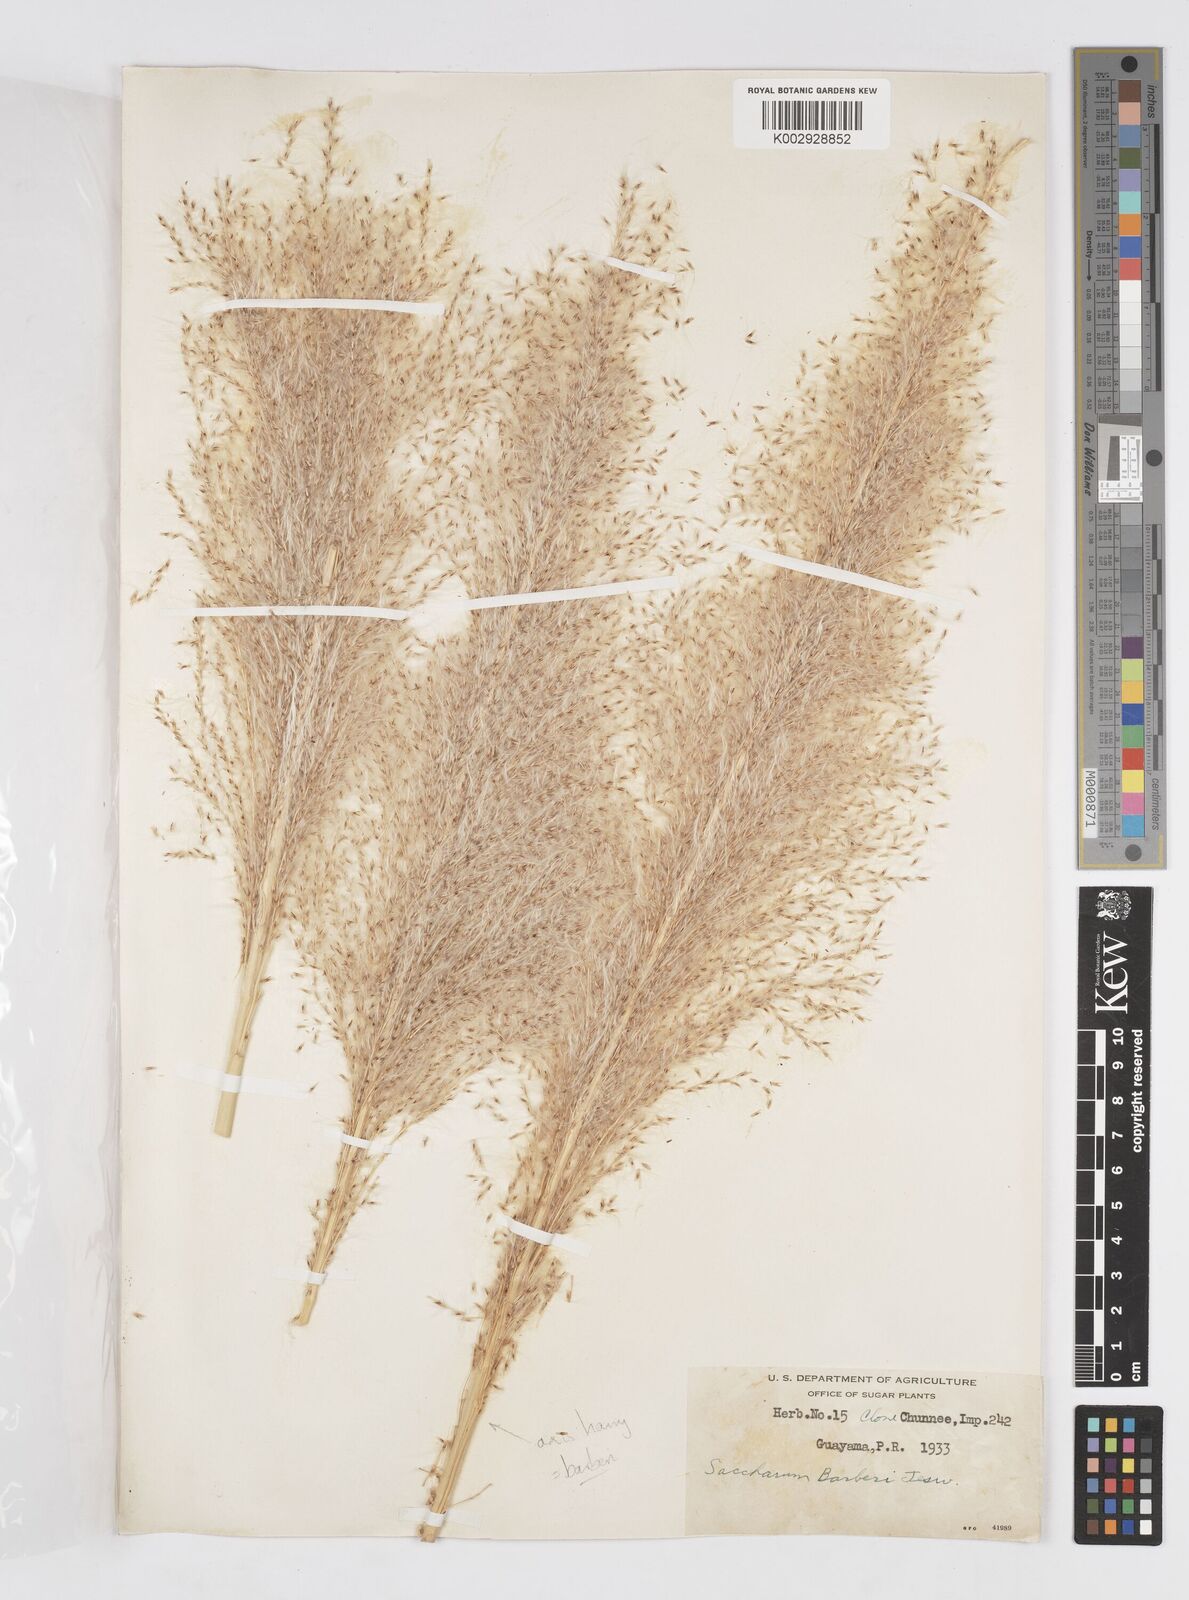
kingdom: Plantae
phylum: Tracheophyta
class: Liliopsida
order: Poales
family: Poaceae
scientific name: Poaceae
